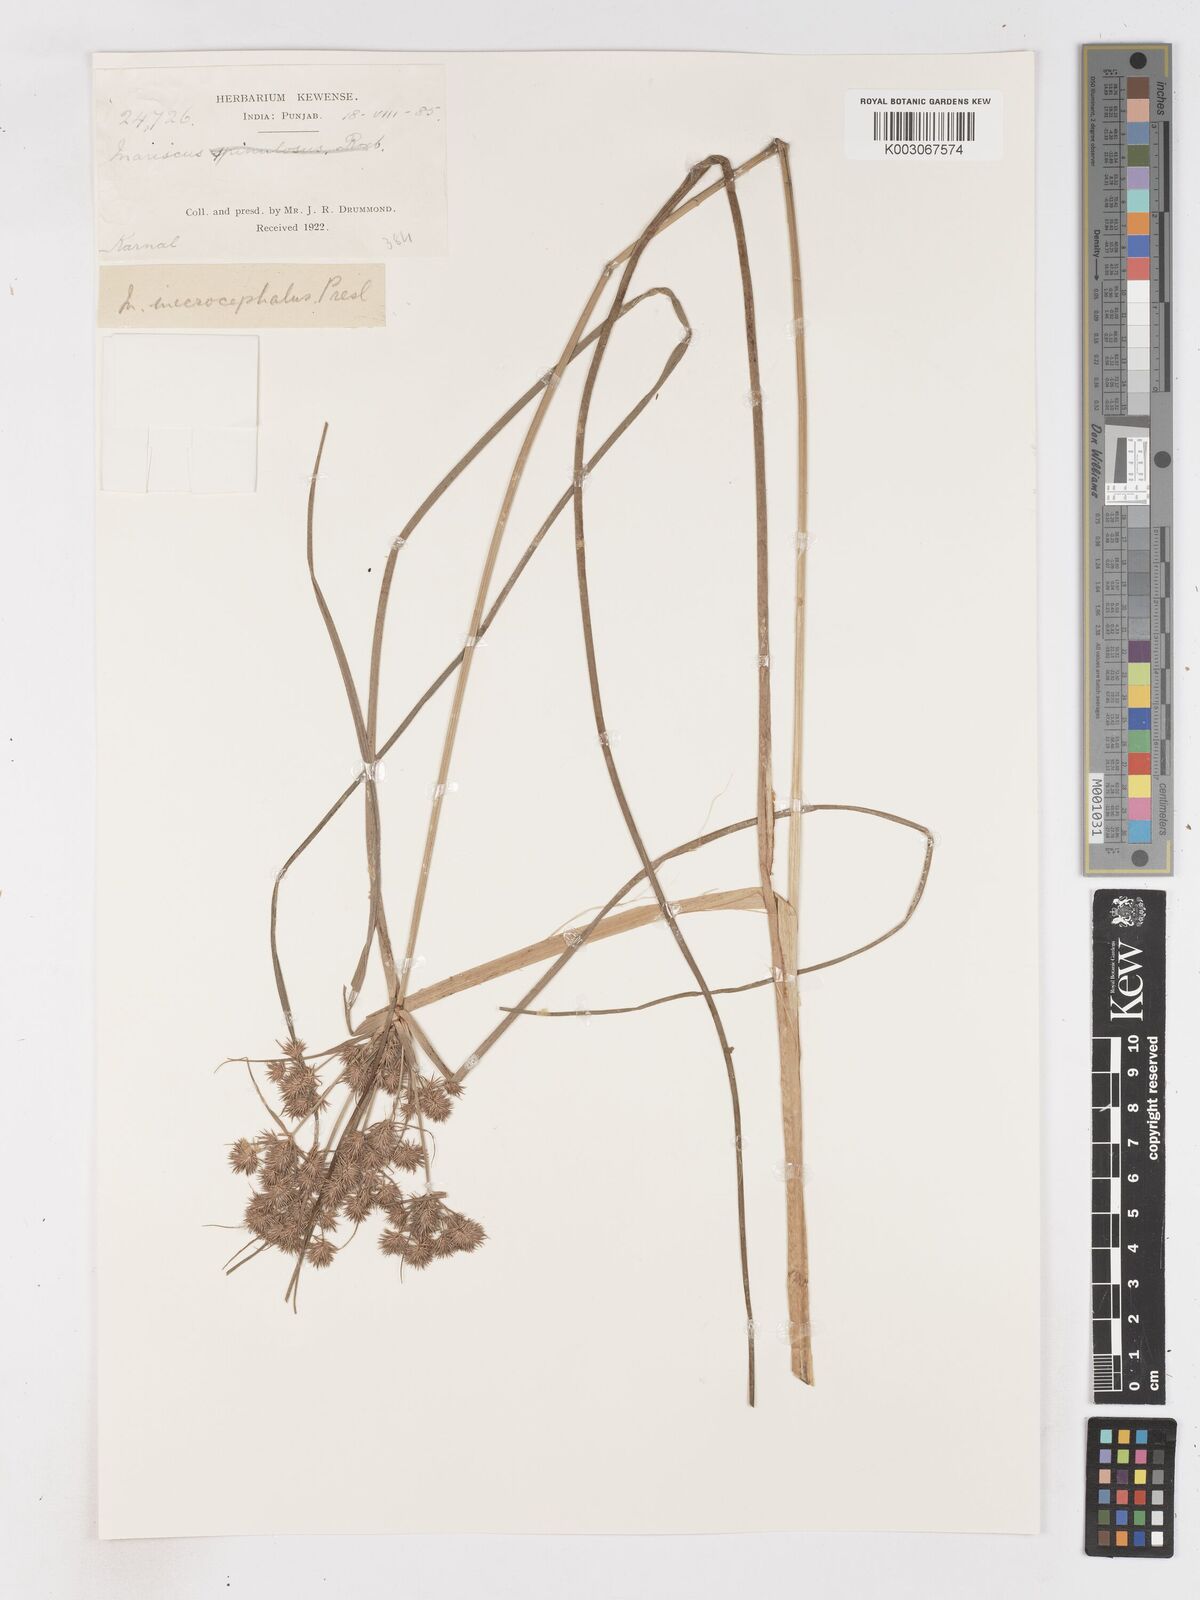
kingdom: Plantae
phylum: Tracheophyta
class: Liliopsida
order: Poales
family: Cyperaceae
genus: Cyperus
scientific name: Cyperus compactus
